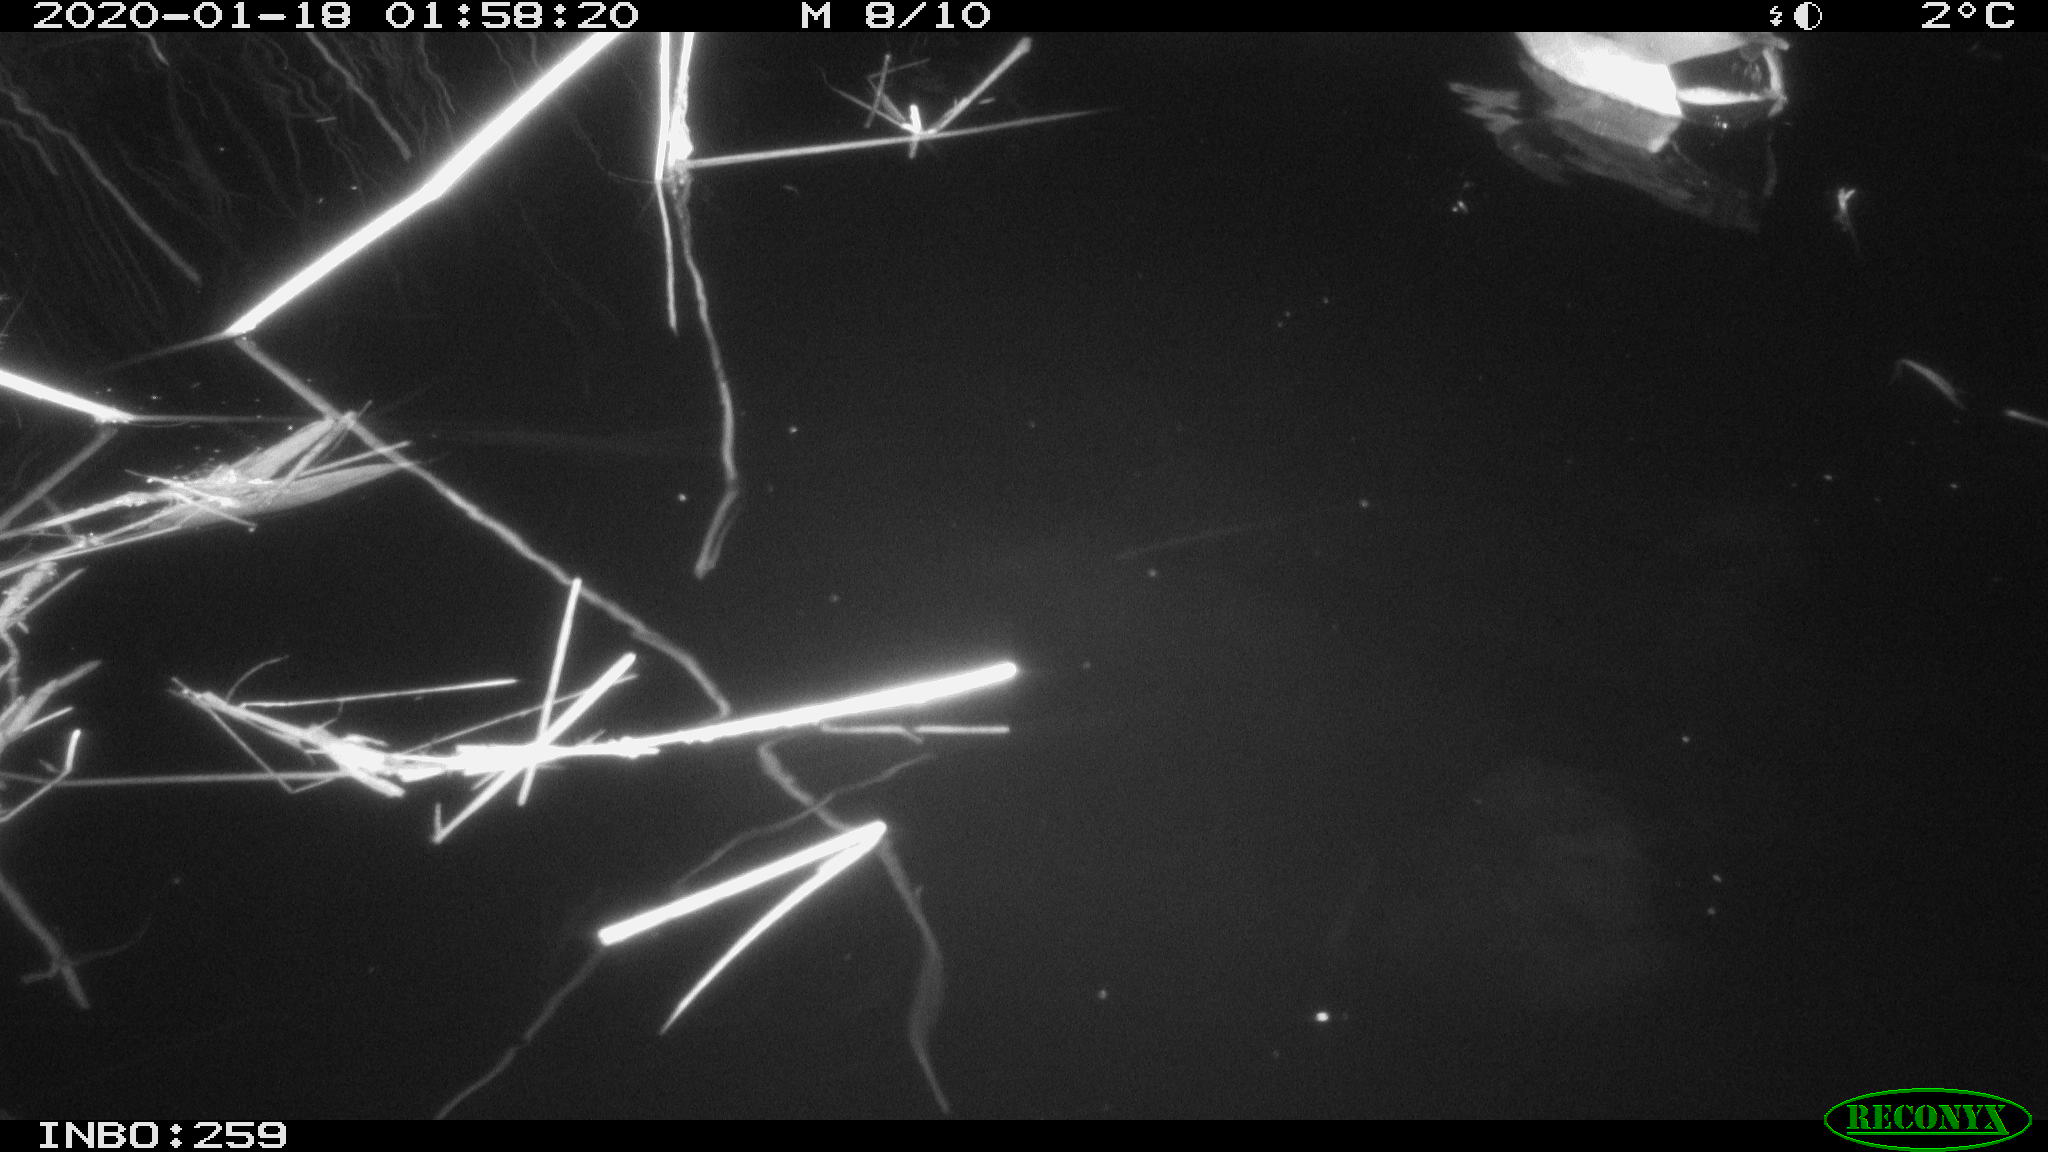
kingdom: Animalia
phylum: Chordata
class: Aves
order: Anseriformes
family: Anatidae
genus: Anas
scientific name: Anas platyrhynchos
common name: Mallard
